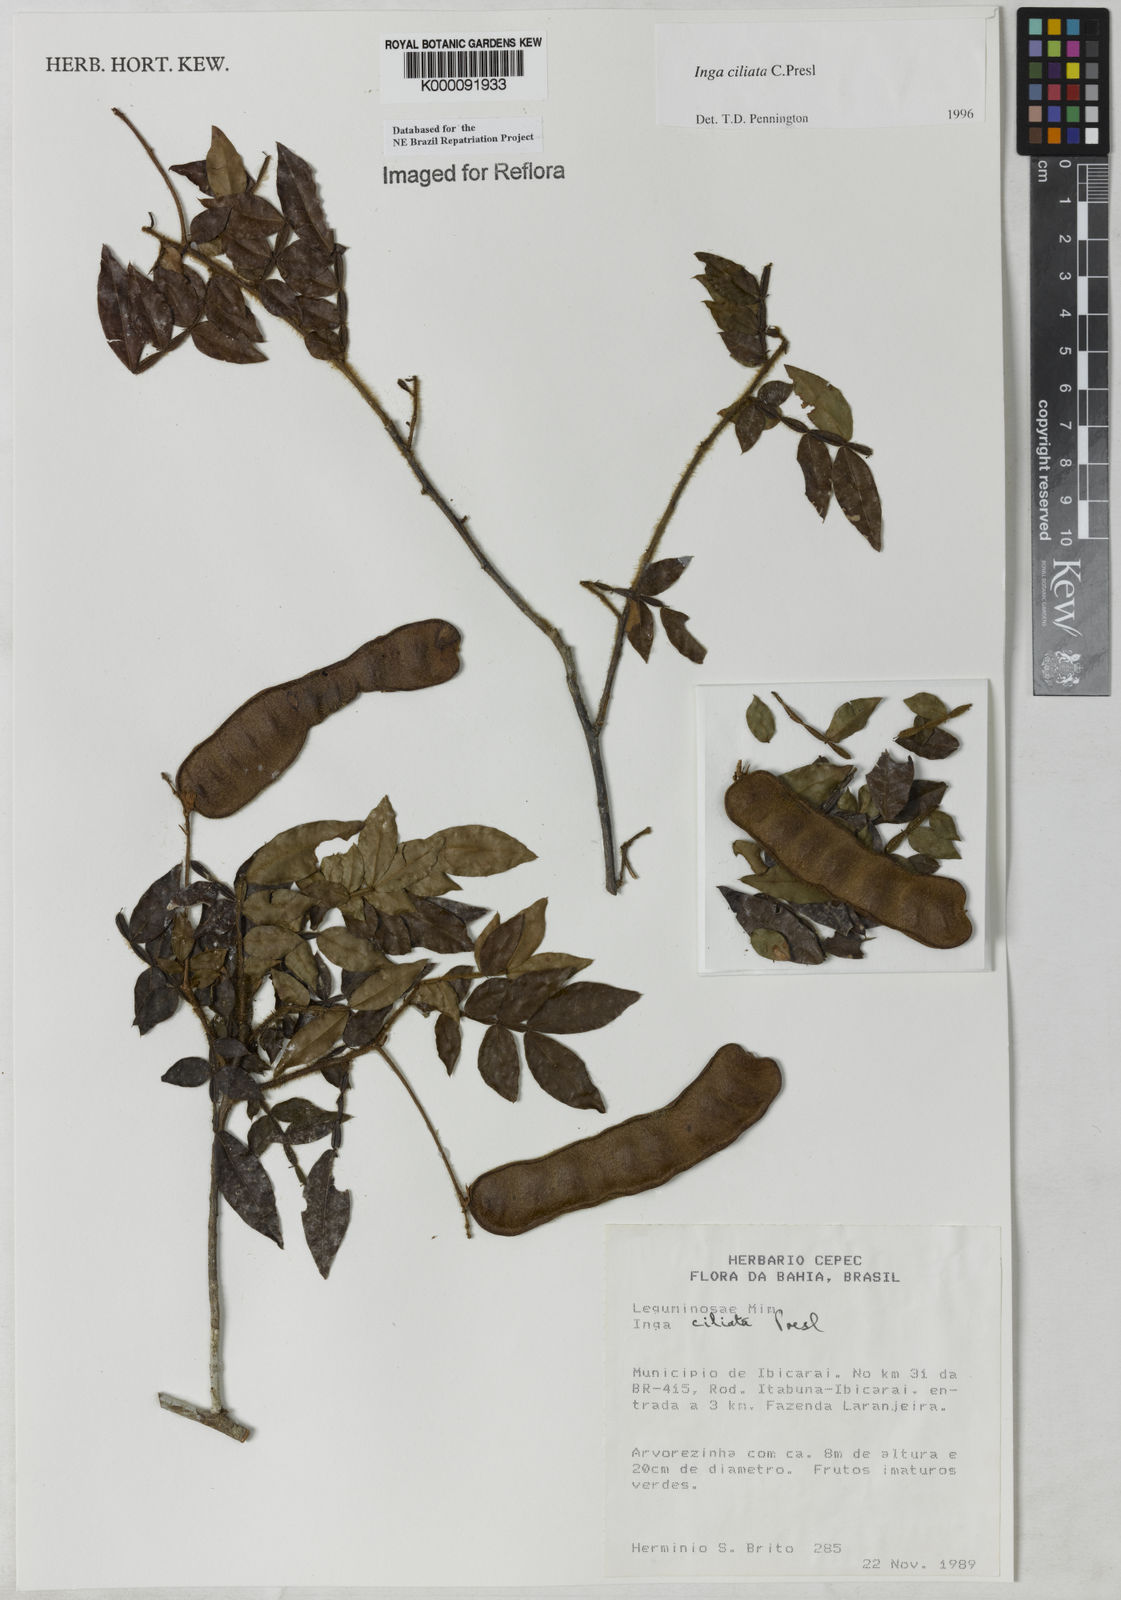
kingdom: Plantae
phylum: Tracheophyta
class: Magnoliopsida
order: Fabales
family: Fabaceae
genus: Inga
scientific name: Inga ciliata
